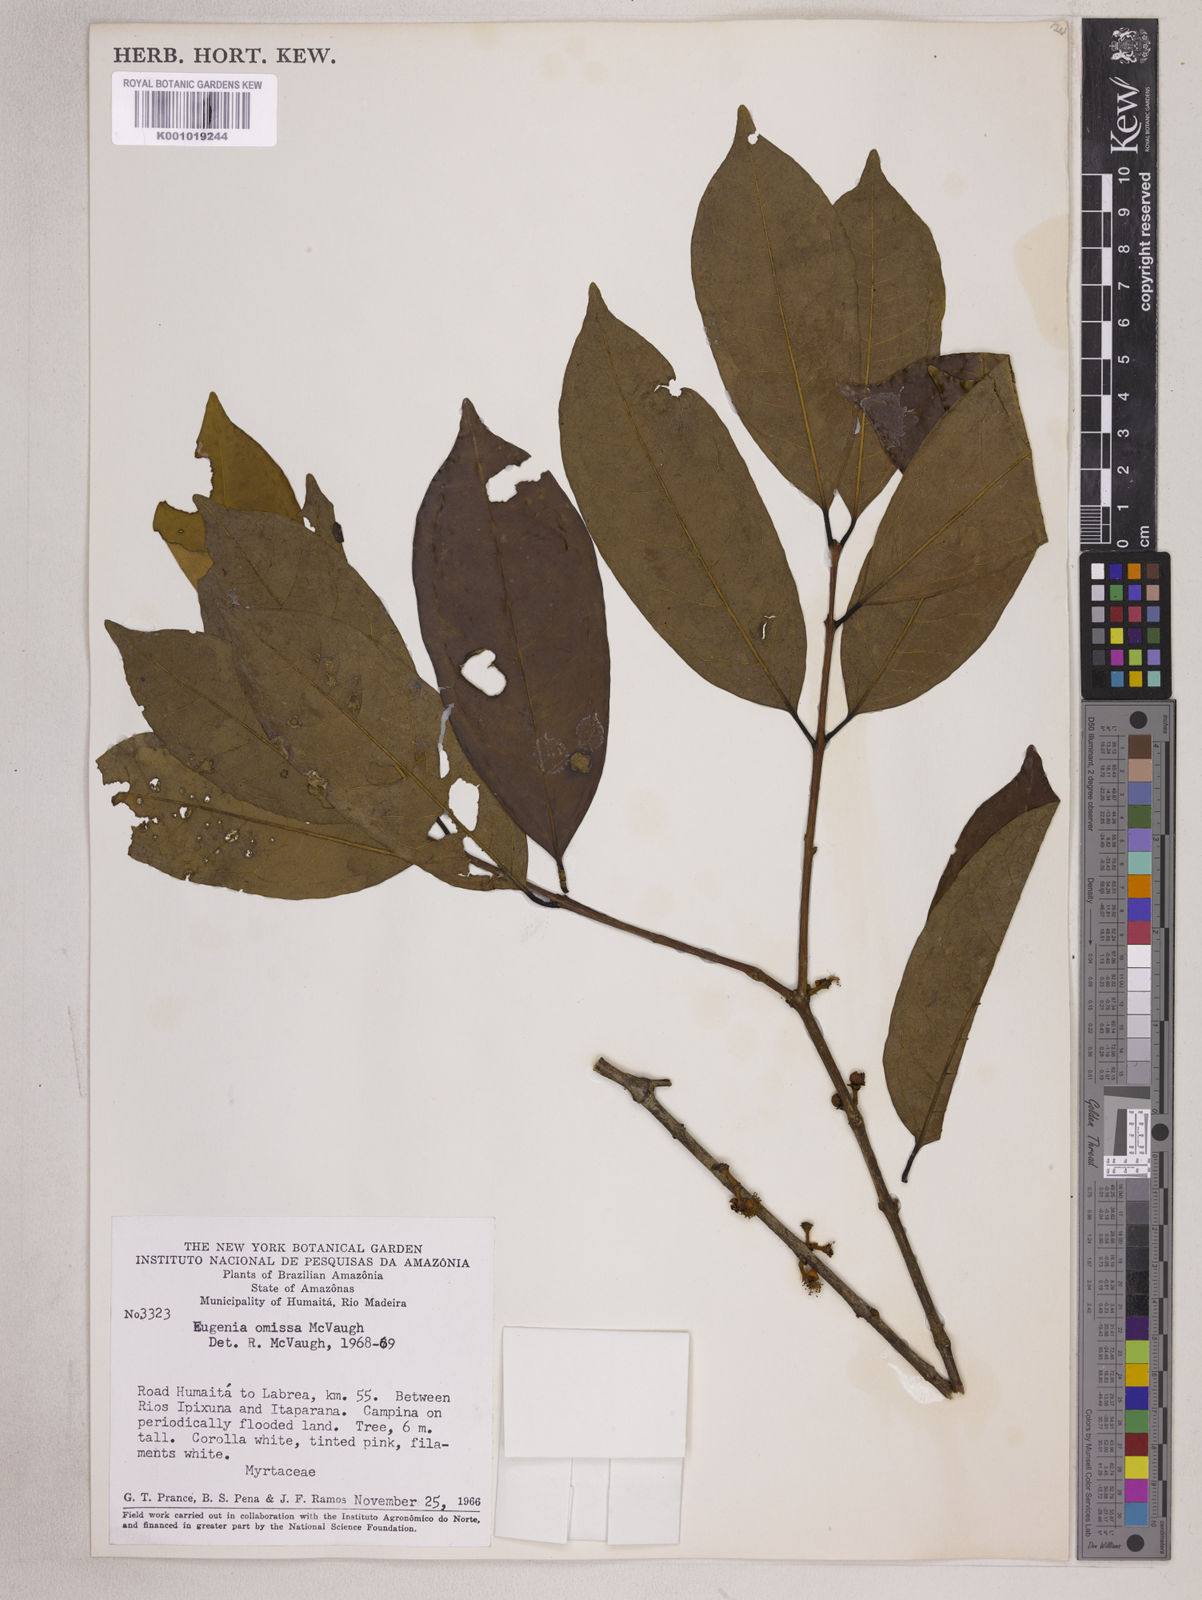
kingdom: Plantae
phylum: Tracheophyta
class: Magnoliopsida
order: Myrtales
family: Myrtaceae
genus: Eugenia
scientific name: Eugenia omissa
